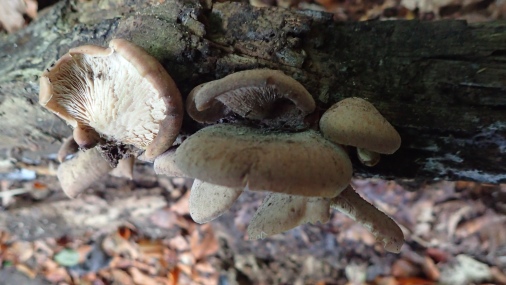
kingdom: Fungi
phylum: Basidiomycota
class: Agaricomycetes
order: Russulales
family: Auriscalpiaceae
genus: Lentinellus
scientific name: Lentinellus ursinus
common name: børstehåret savbladhat
